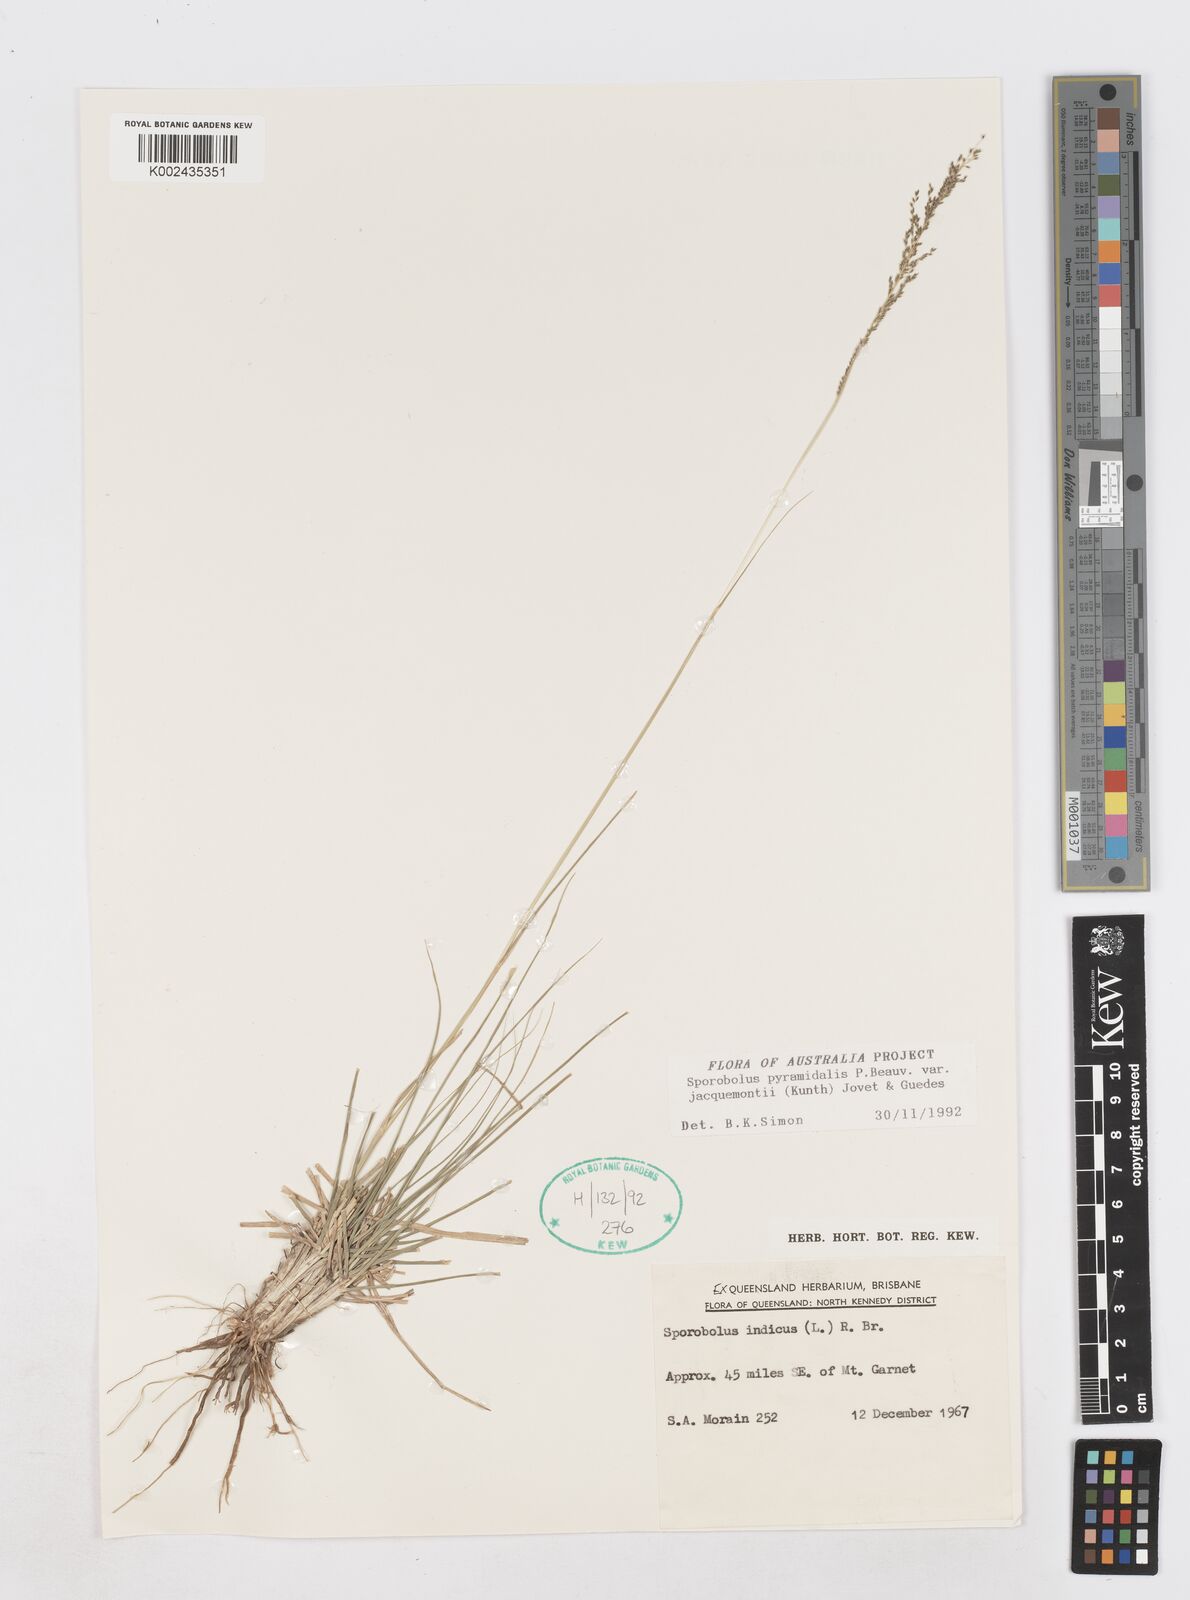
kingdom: Plantae
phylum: Tracheophyta
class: Liliopsida
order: Poales
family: Poaceae
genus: Sporobolus
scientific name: Sporobolus pyramidalis
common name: West indian dropseed
